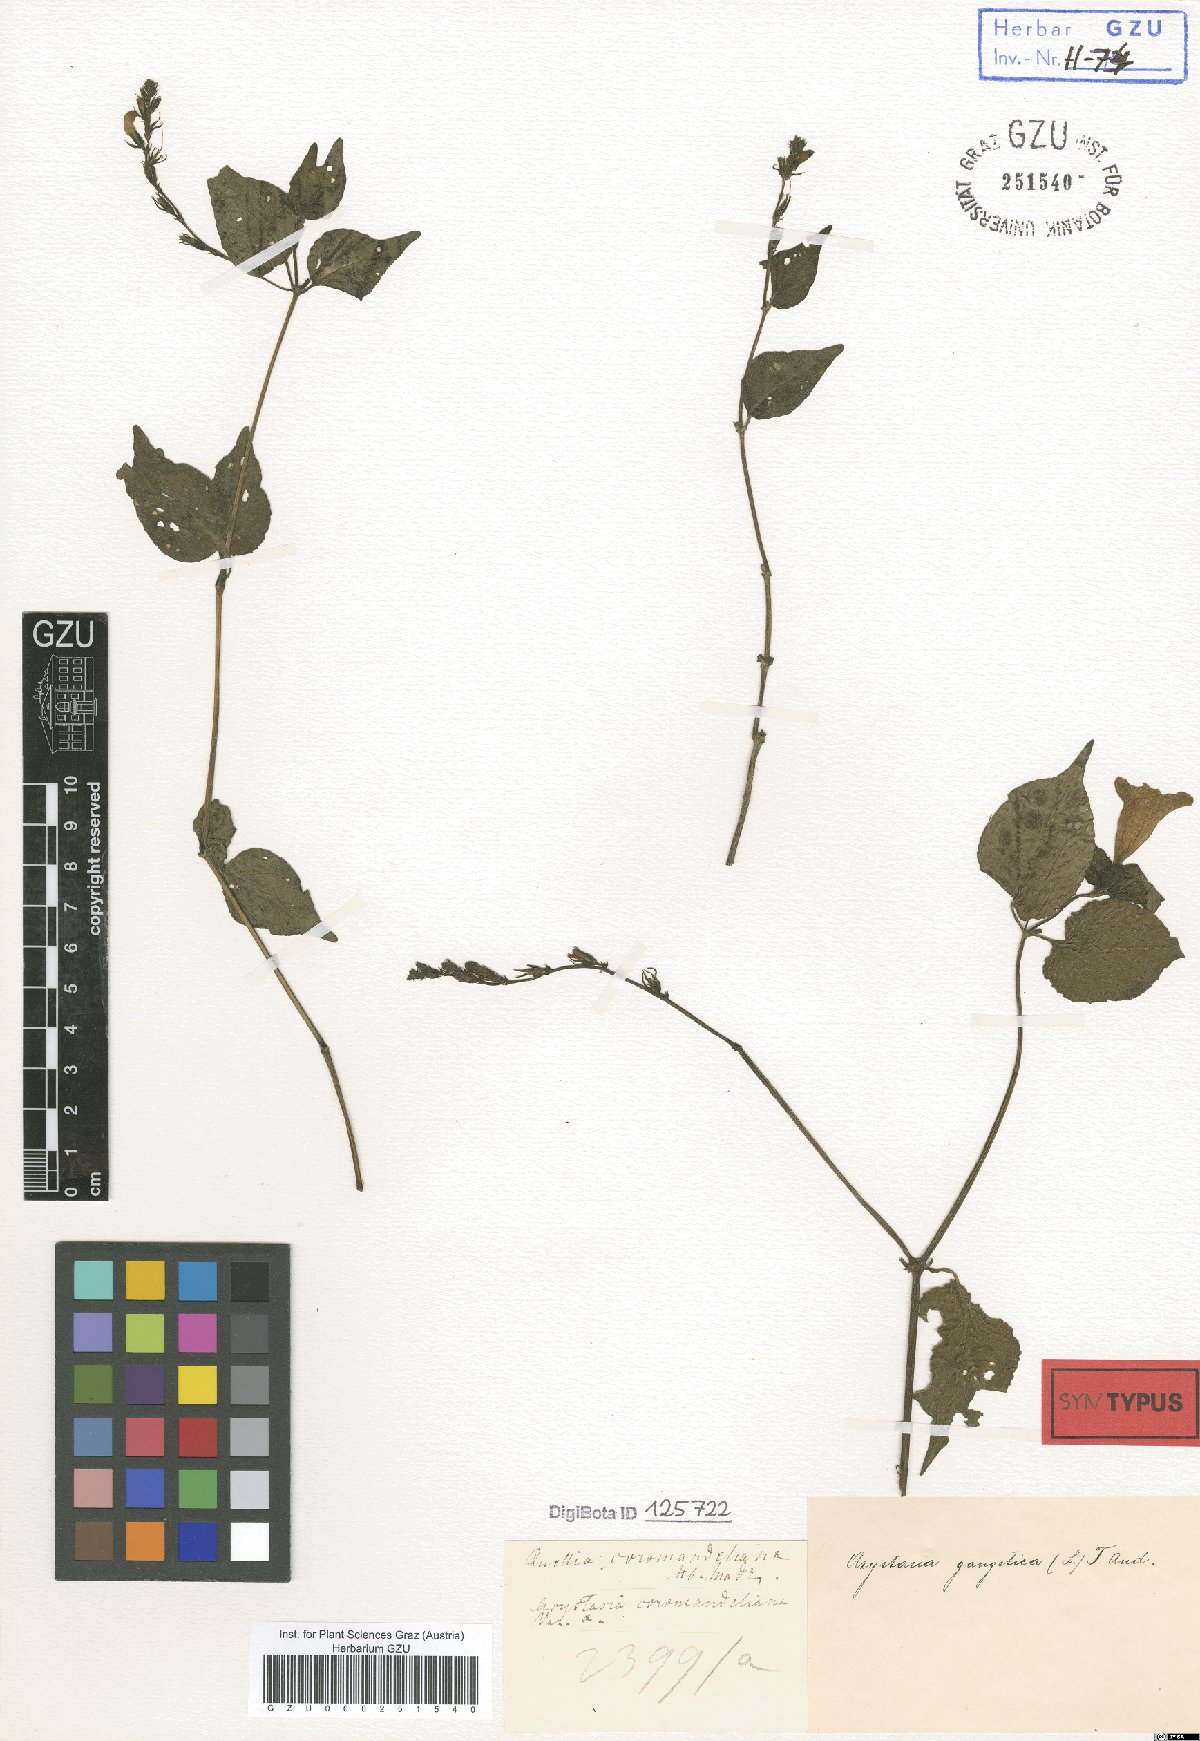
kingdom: Plantae
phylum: Tracheophyta
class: Magnoliopsida
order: Lamiales
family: Acanthaceae
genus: Asystasia
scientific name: Asystasia gangetica
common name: Chinese violet
